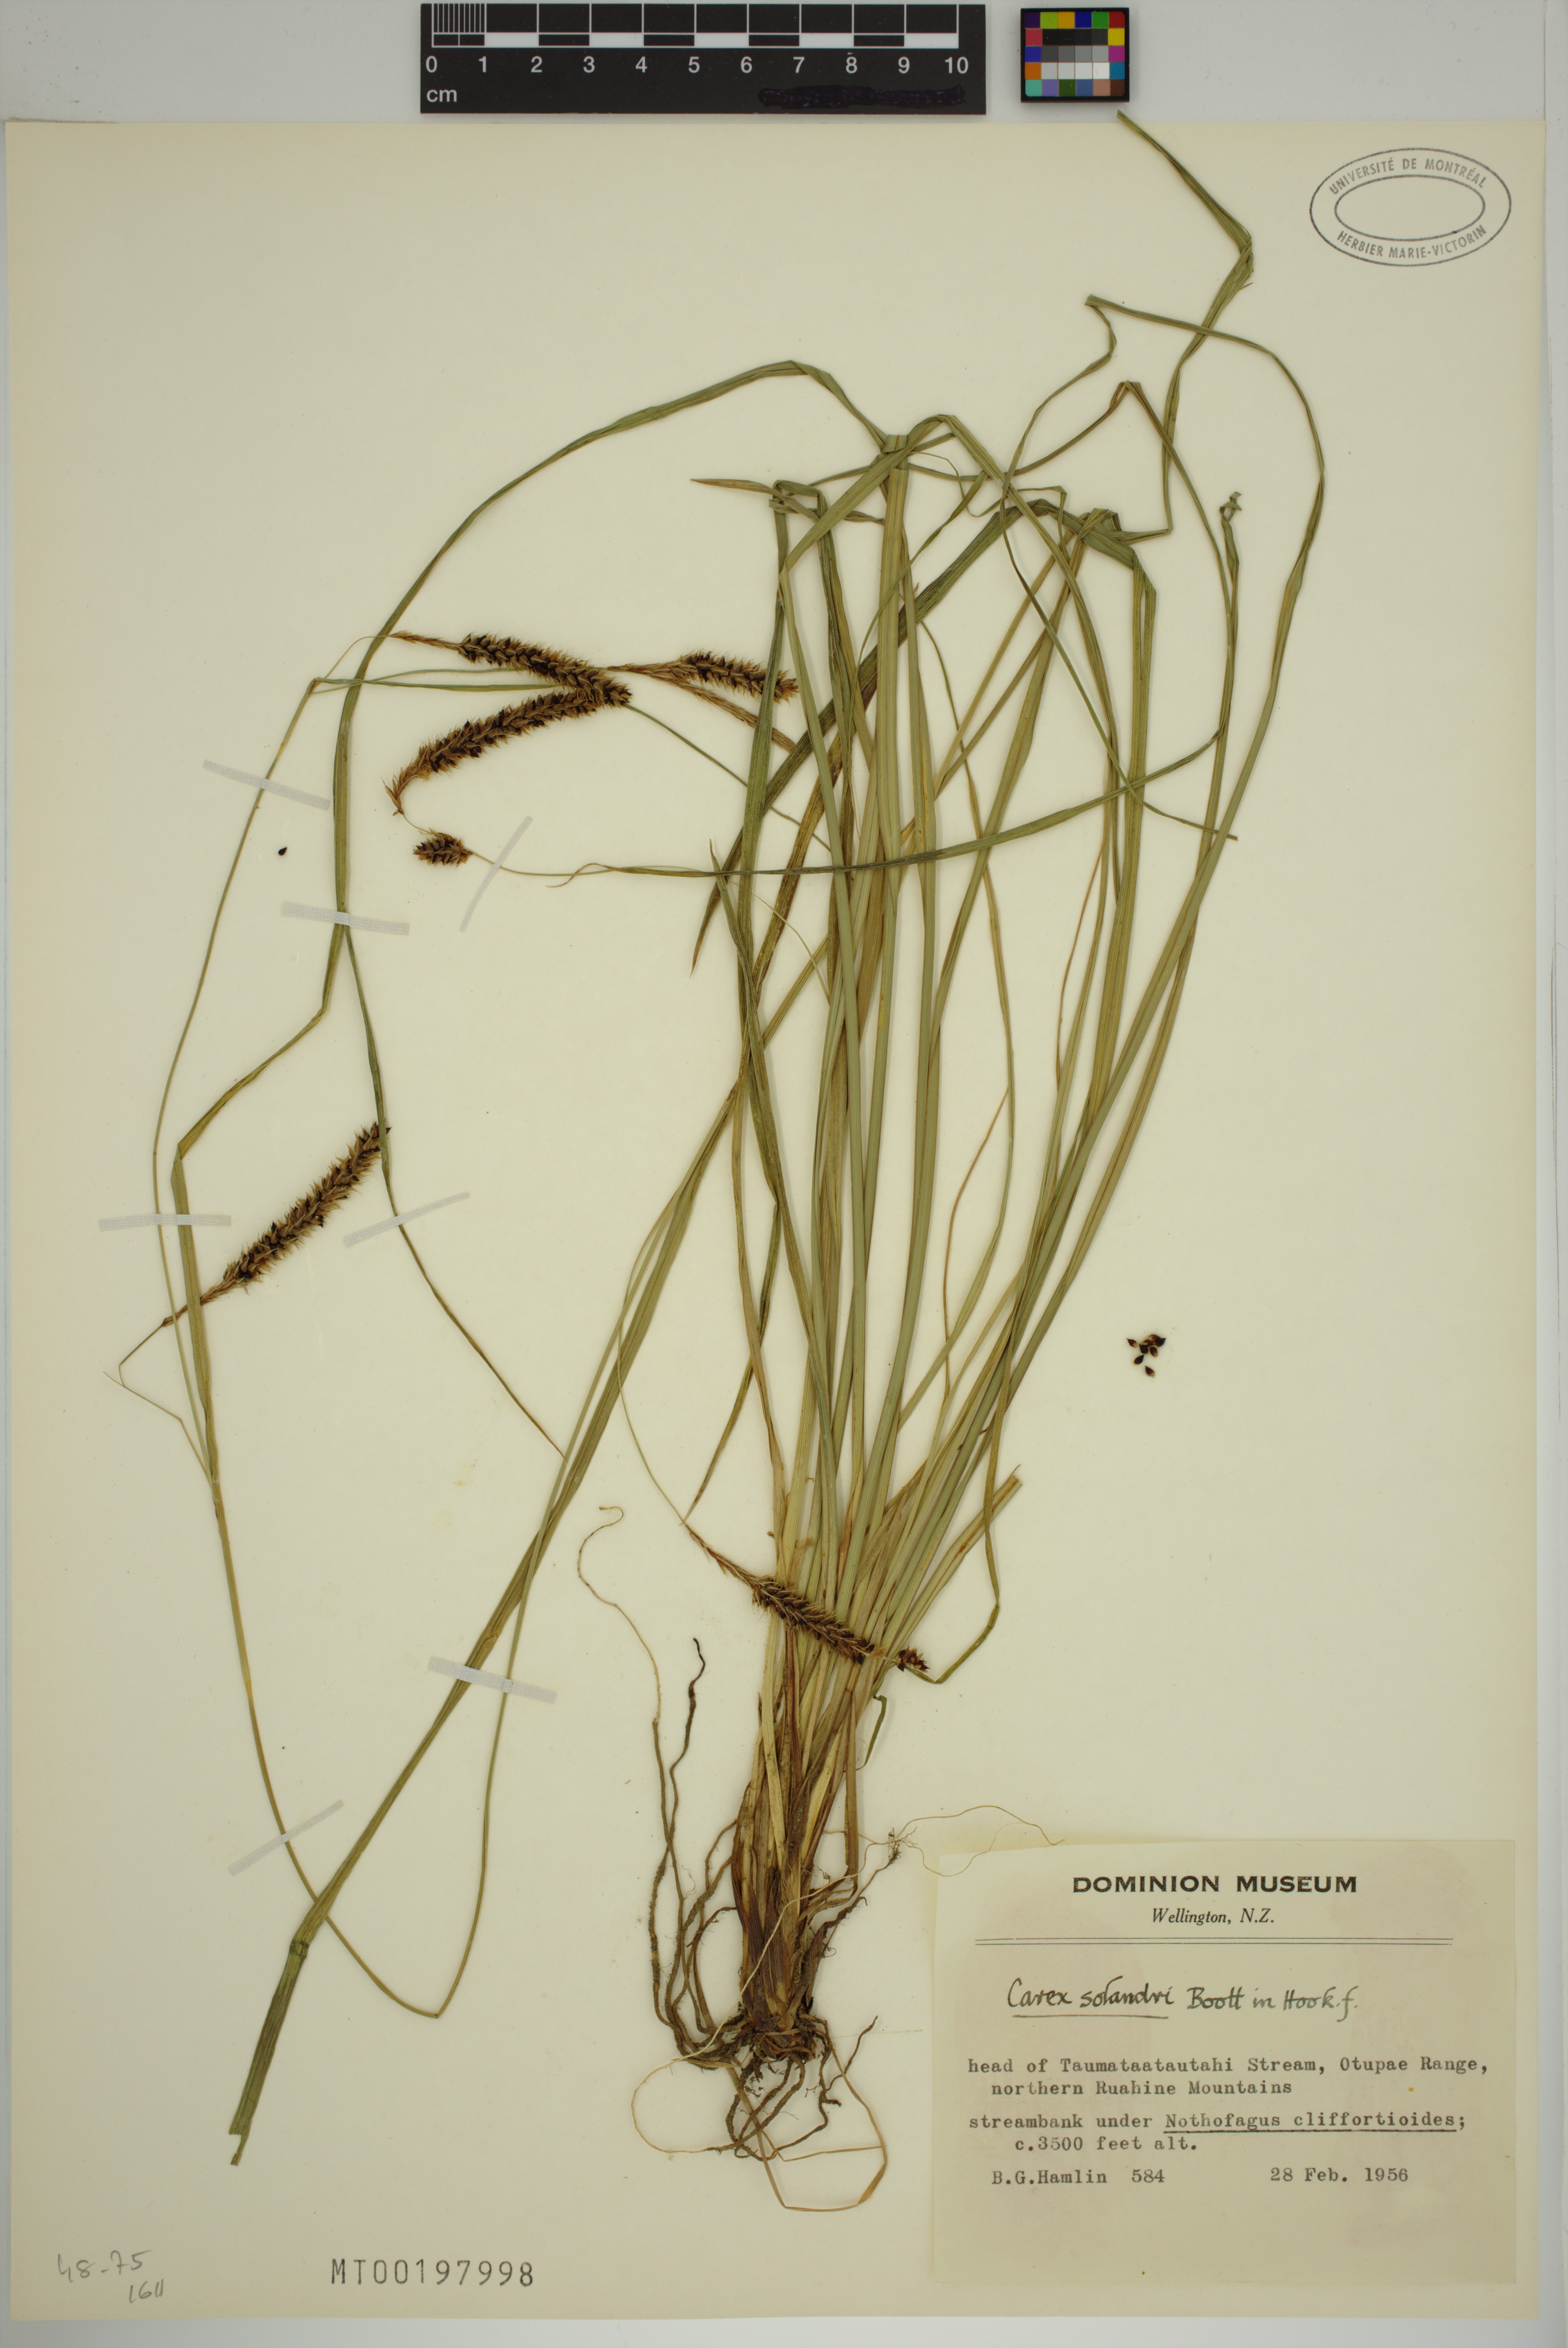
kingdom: Plantae
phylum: Tracheophyta
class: Liliopsida
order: Poales
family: Cyperaceae
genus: Carex
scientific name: Carex solandri
